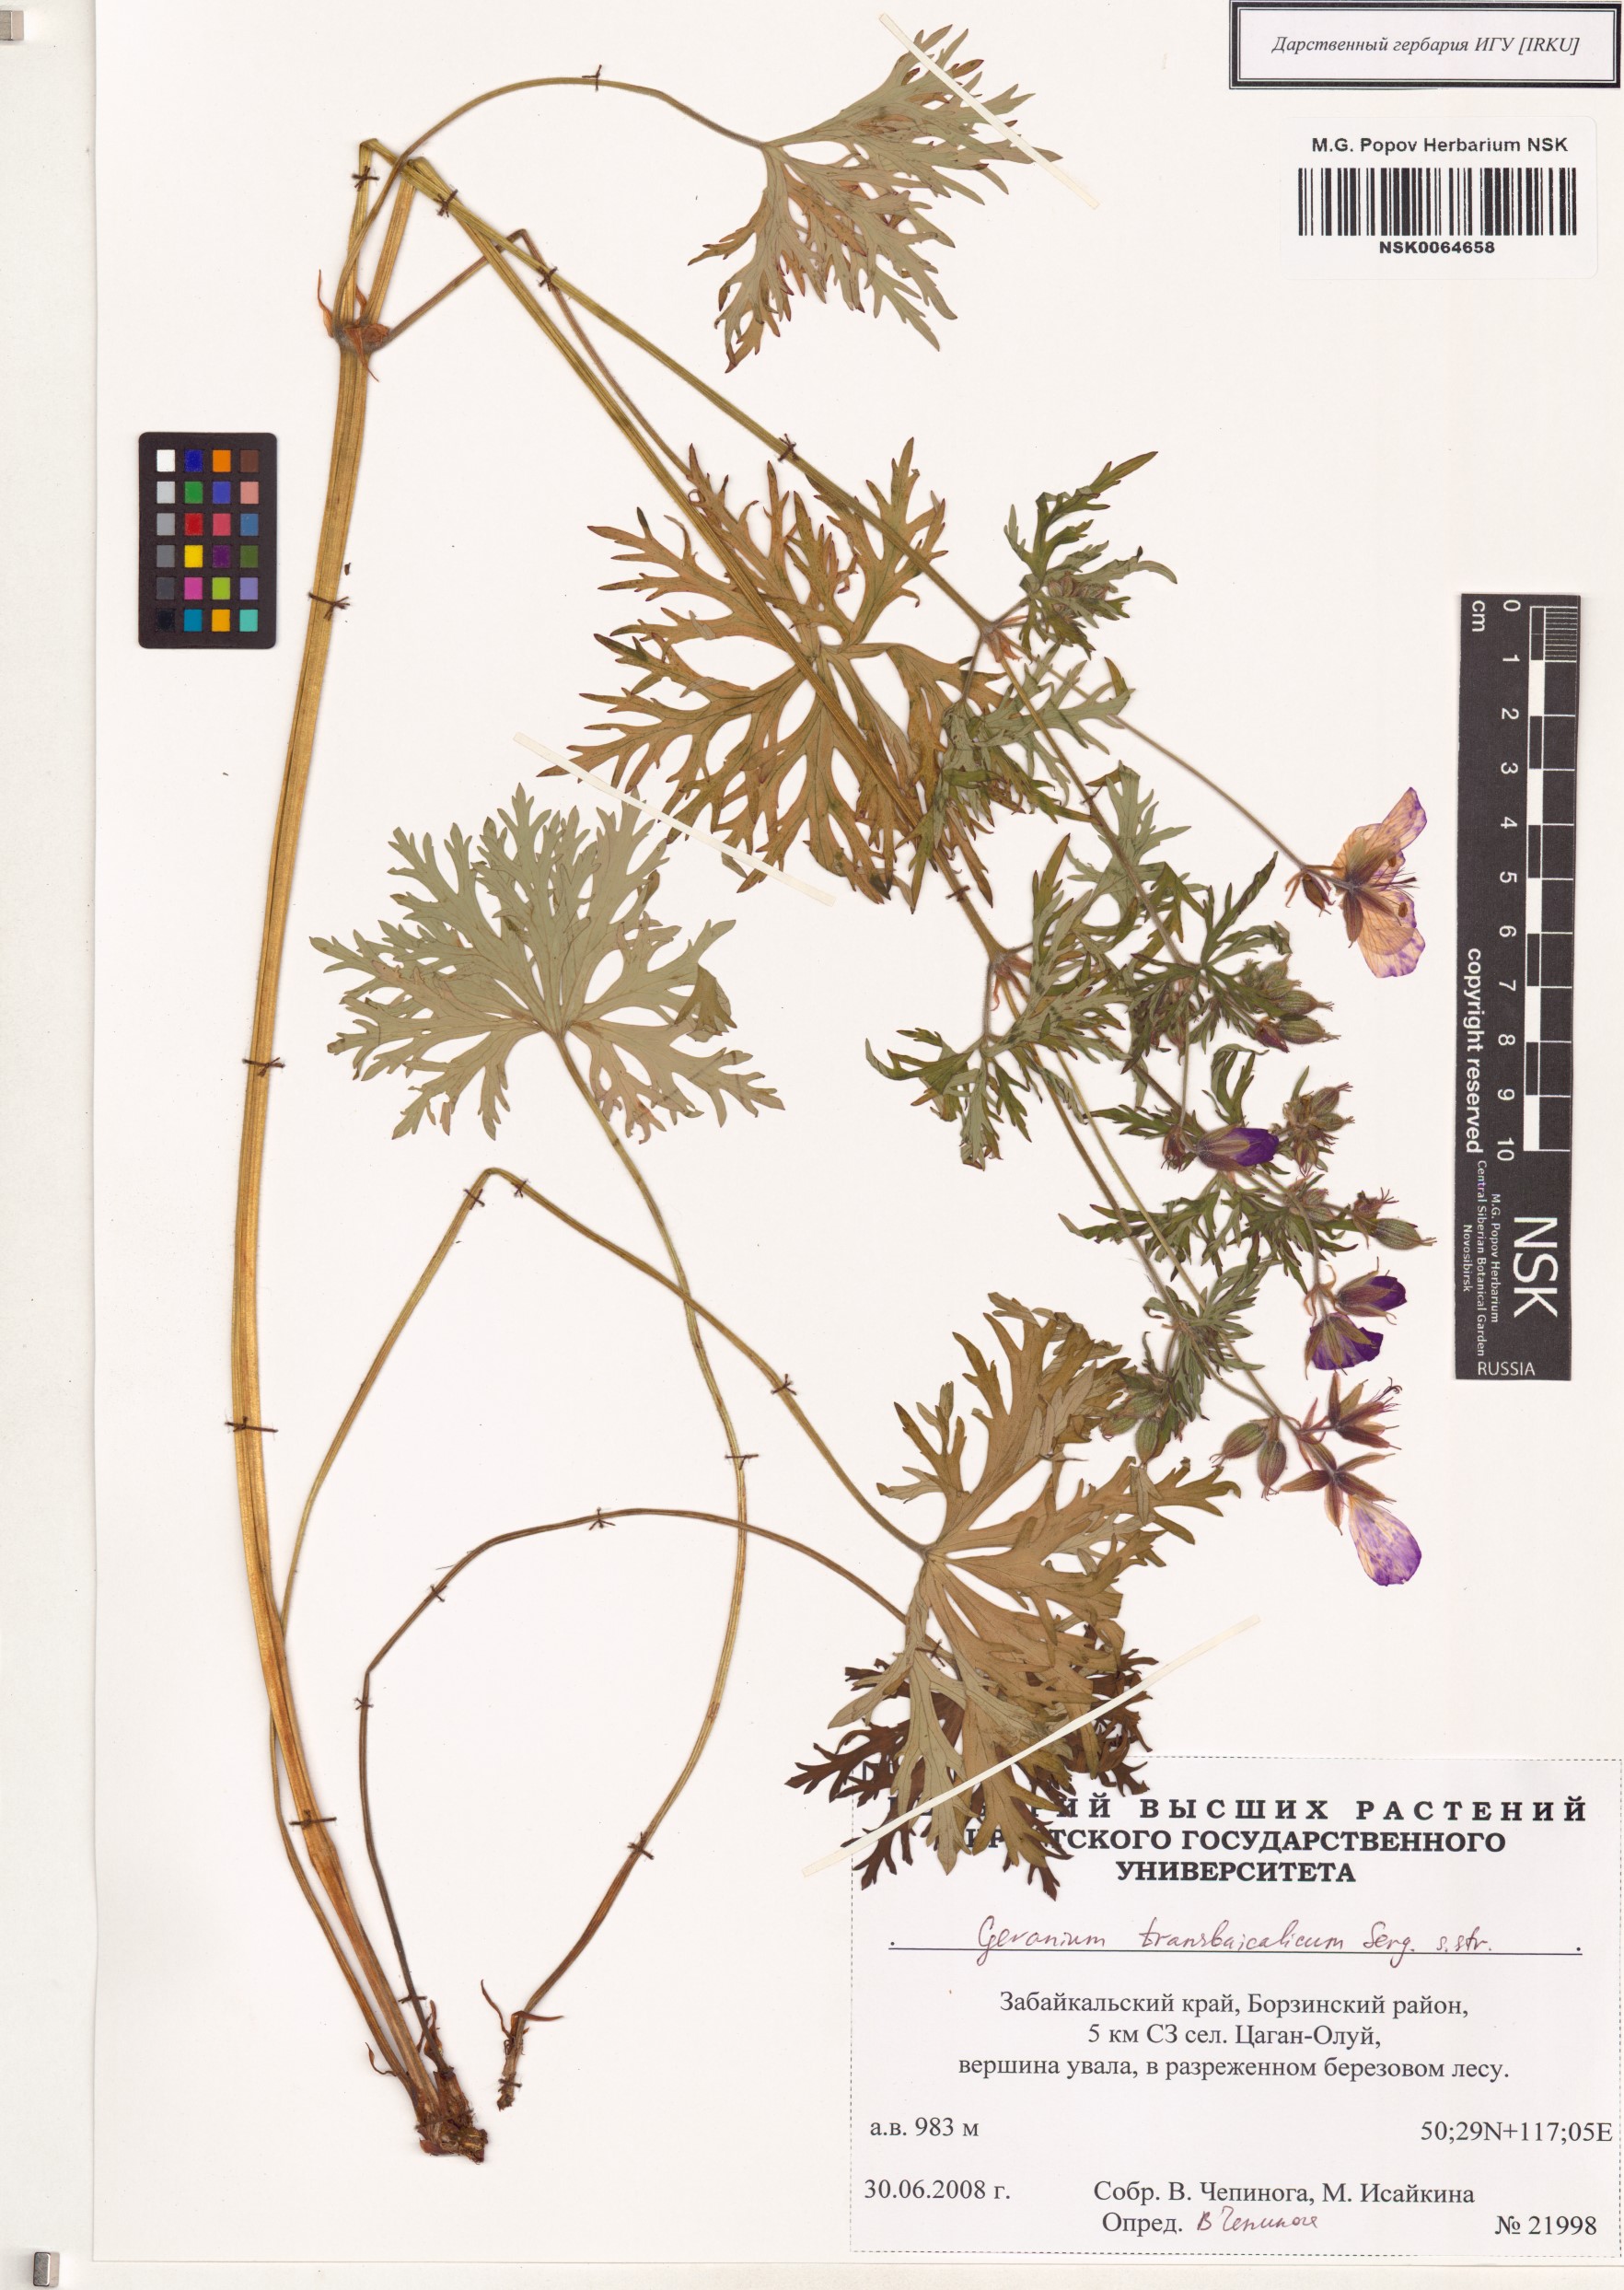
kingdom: Plantae
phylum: Tracheophyta
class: Magnoliopsida
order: Geraniales
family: Geraniaceae
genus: Geranium
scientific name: Geranium pratense
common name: Meadow crane's-bill
